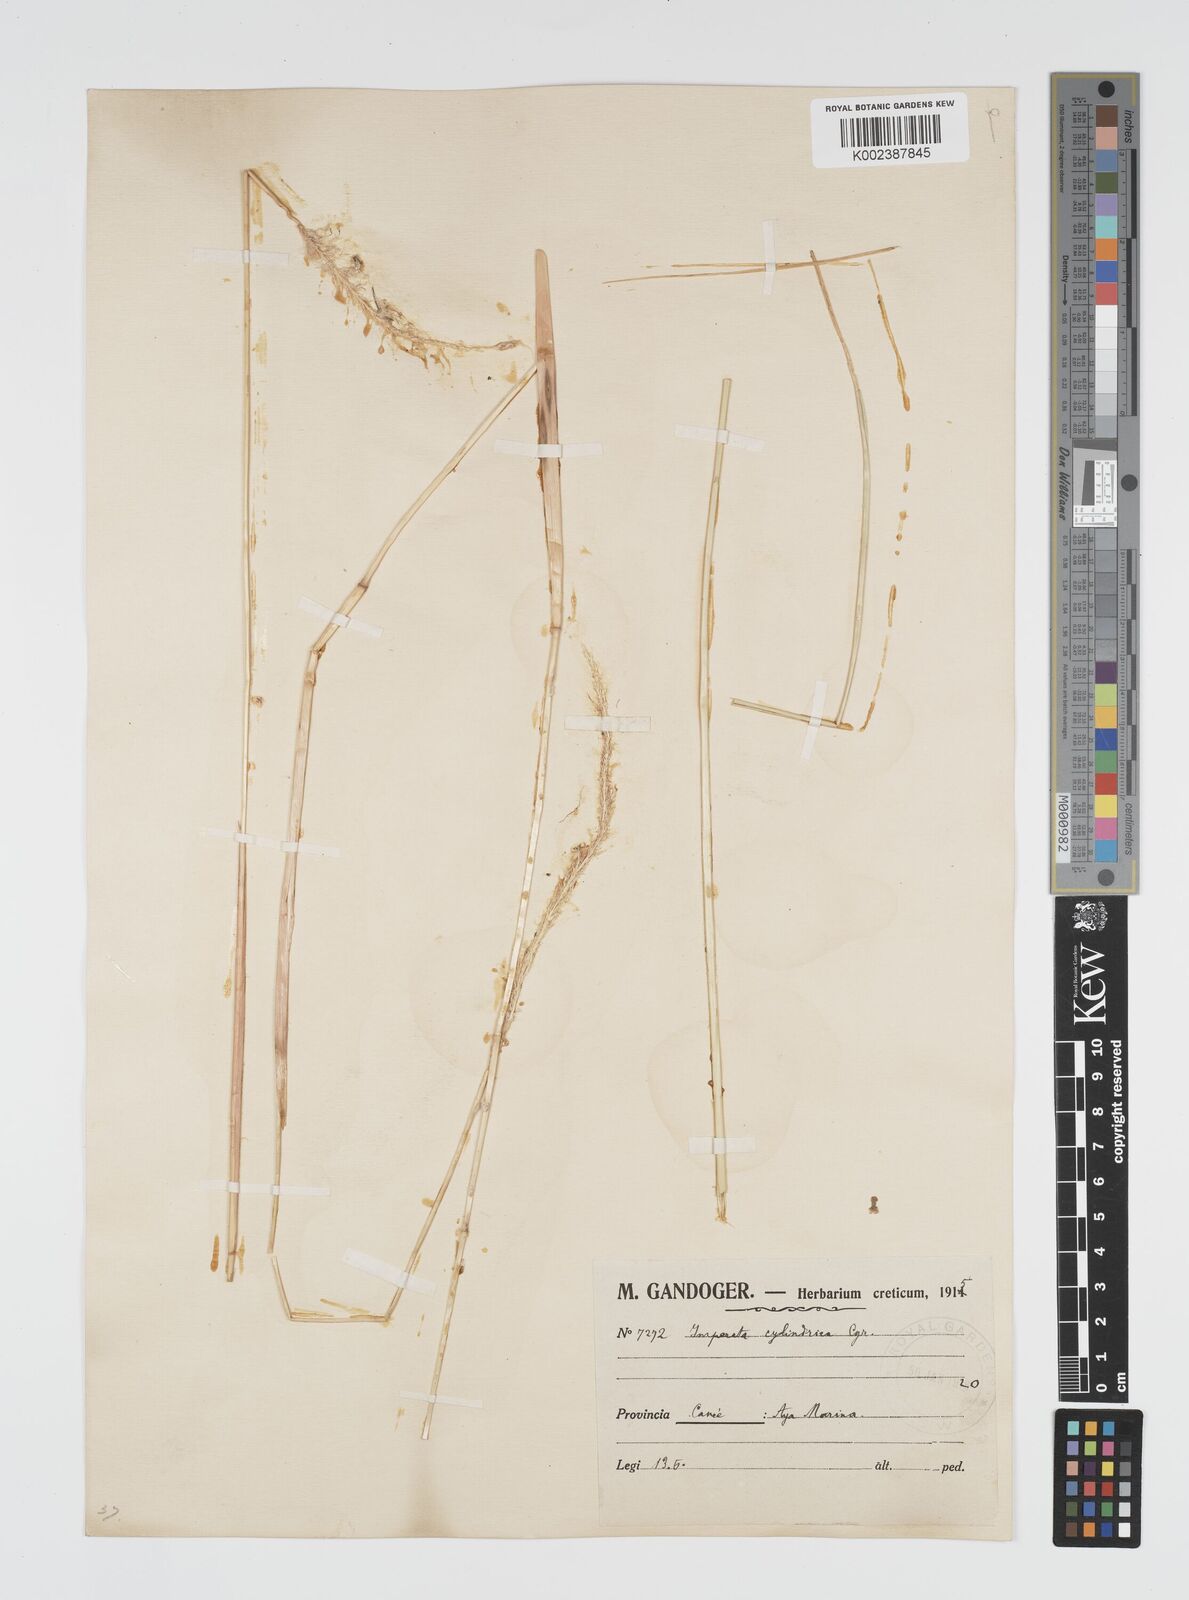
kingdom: Plantae
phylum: Tracheophyta
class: Liliopsida
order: Poales
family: Poaceae
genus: Imperata
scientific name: Imperata cylindrica
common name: Cogongrass
